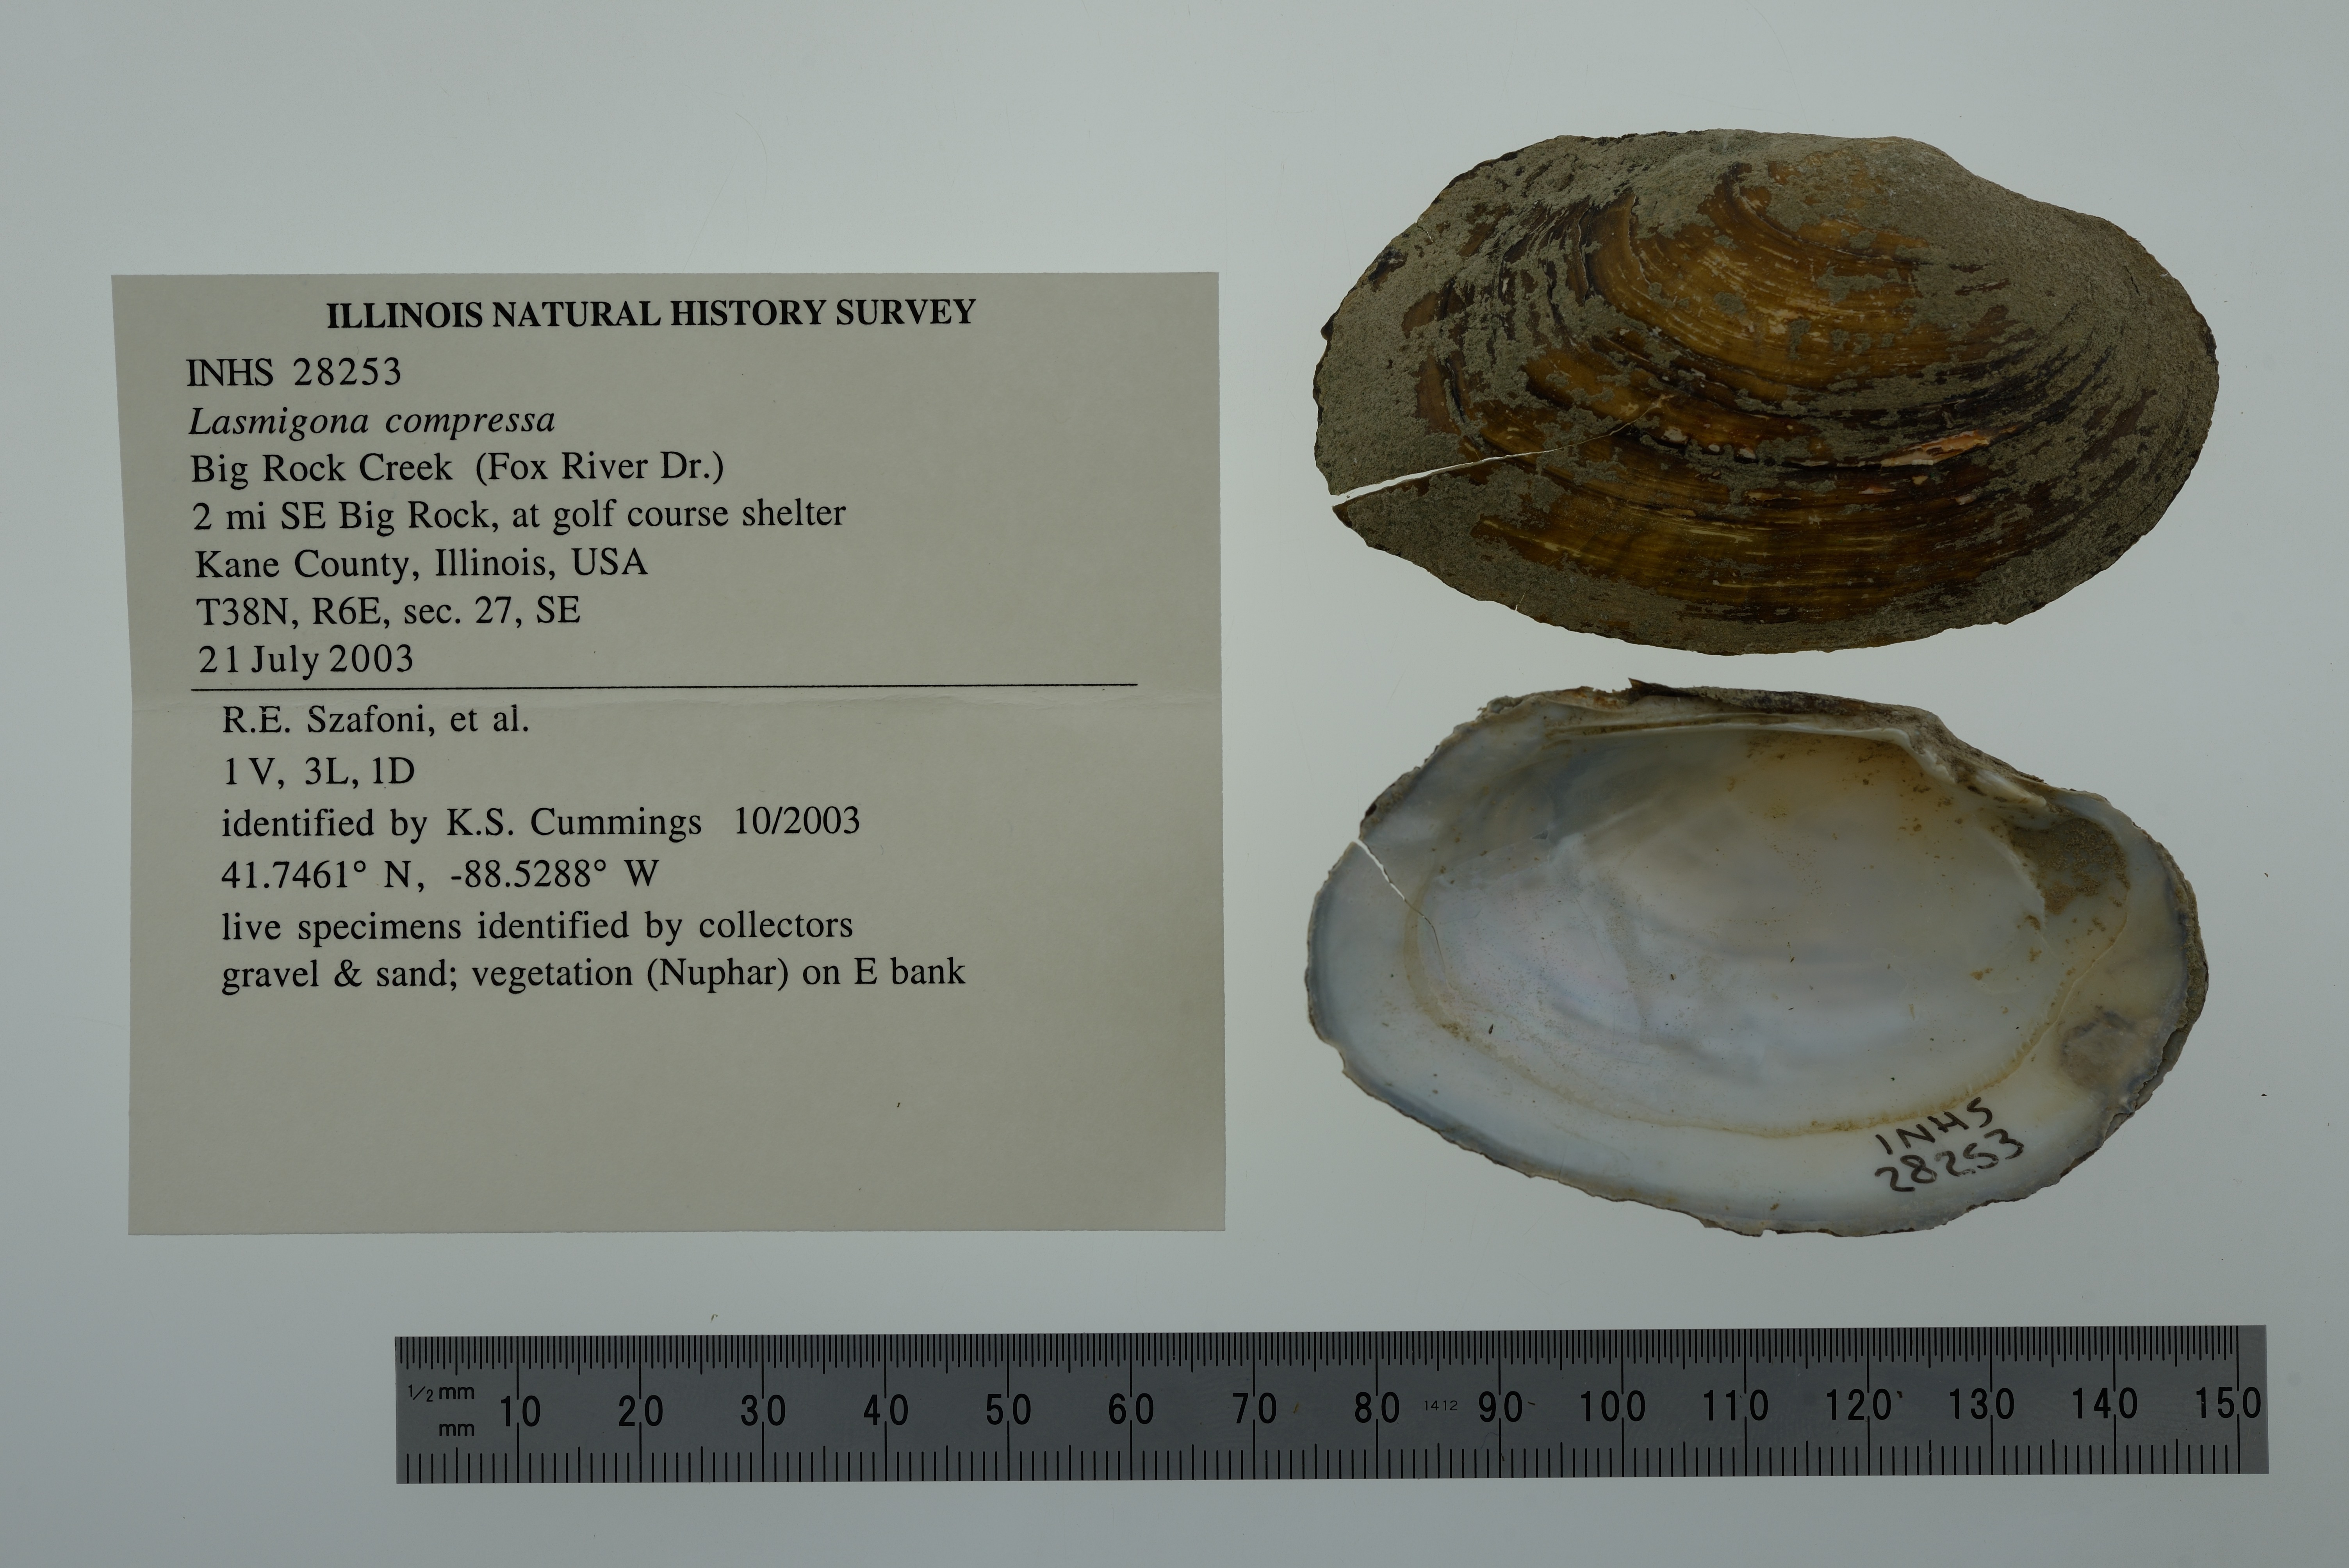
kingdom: Animalia
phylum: Mollusca
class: Bivalvia
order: Unionida
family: Unionidae
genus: Lasmigona
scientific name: Lasmigona compressa
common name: Creek heelsplitter
